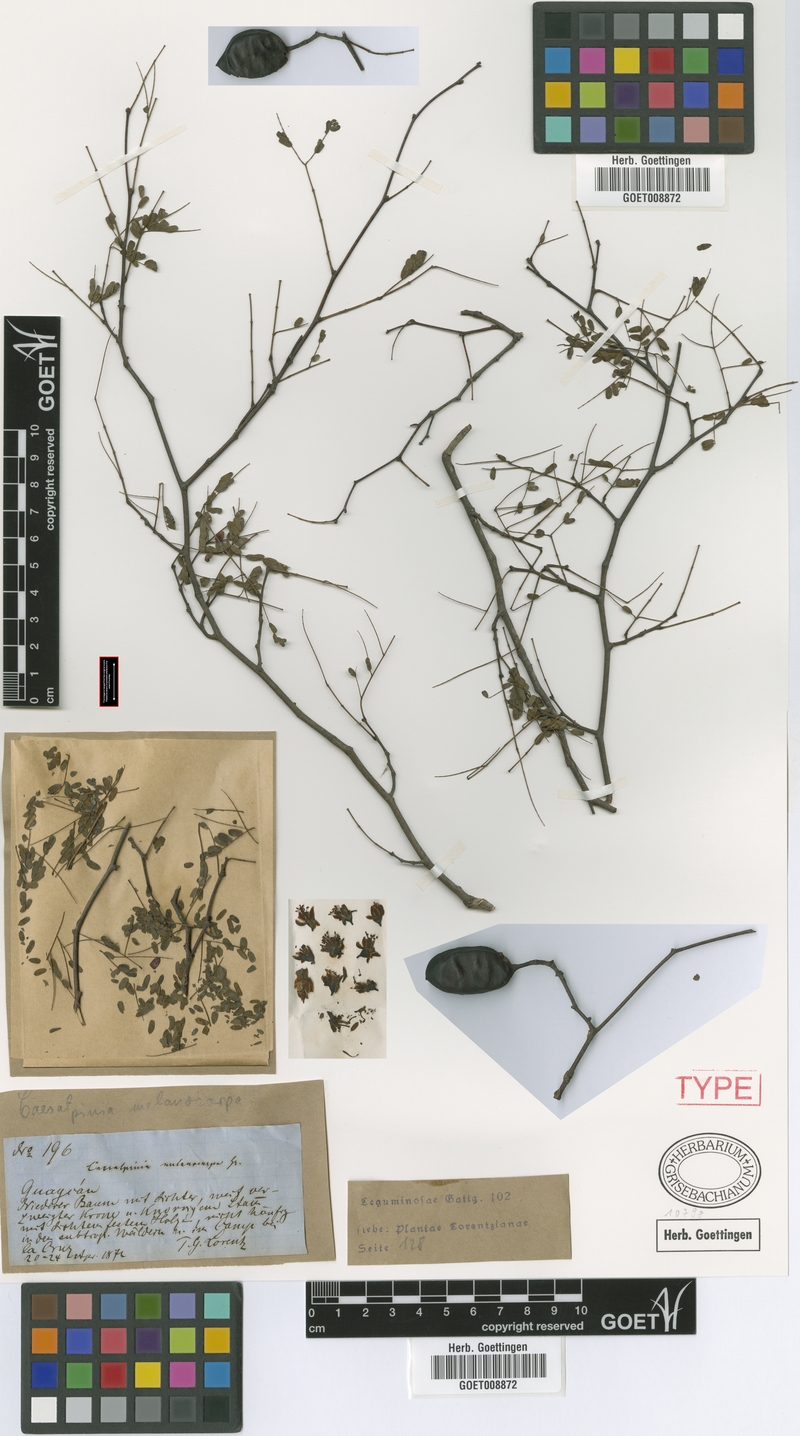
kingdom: Plantae
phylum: Tracheophyta
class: Magnoliopsida
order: Fabales
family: Fabaceae
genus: Libidibia
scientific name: Libidibia paraguariensis
